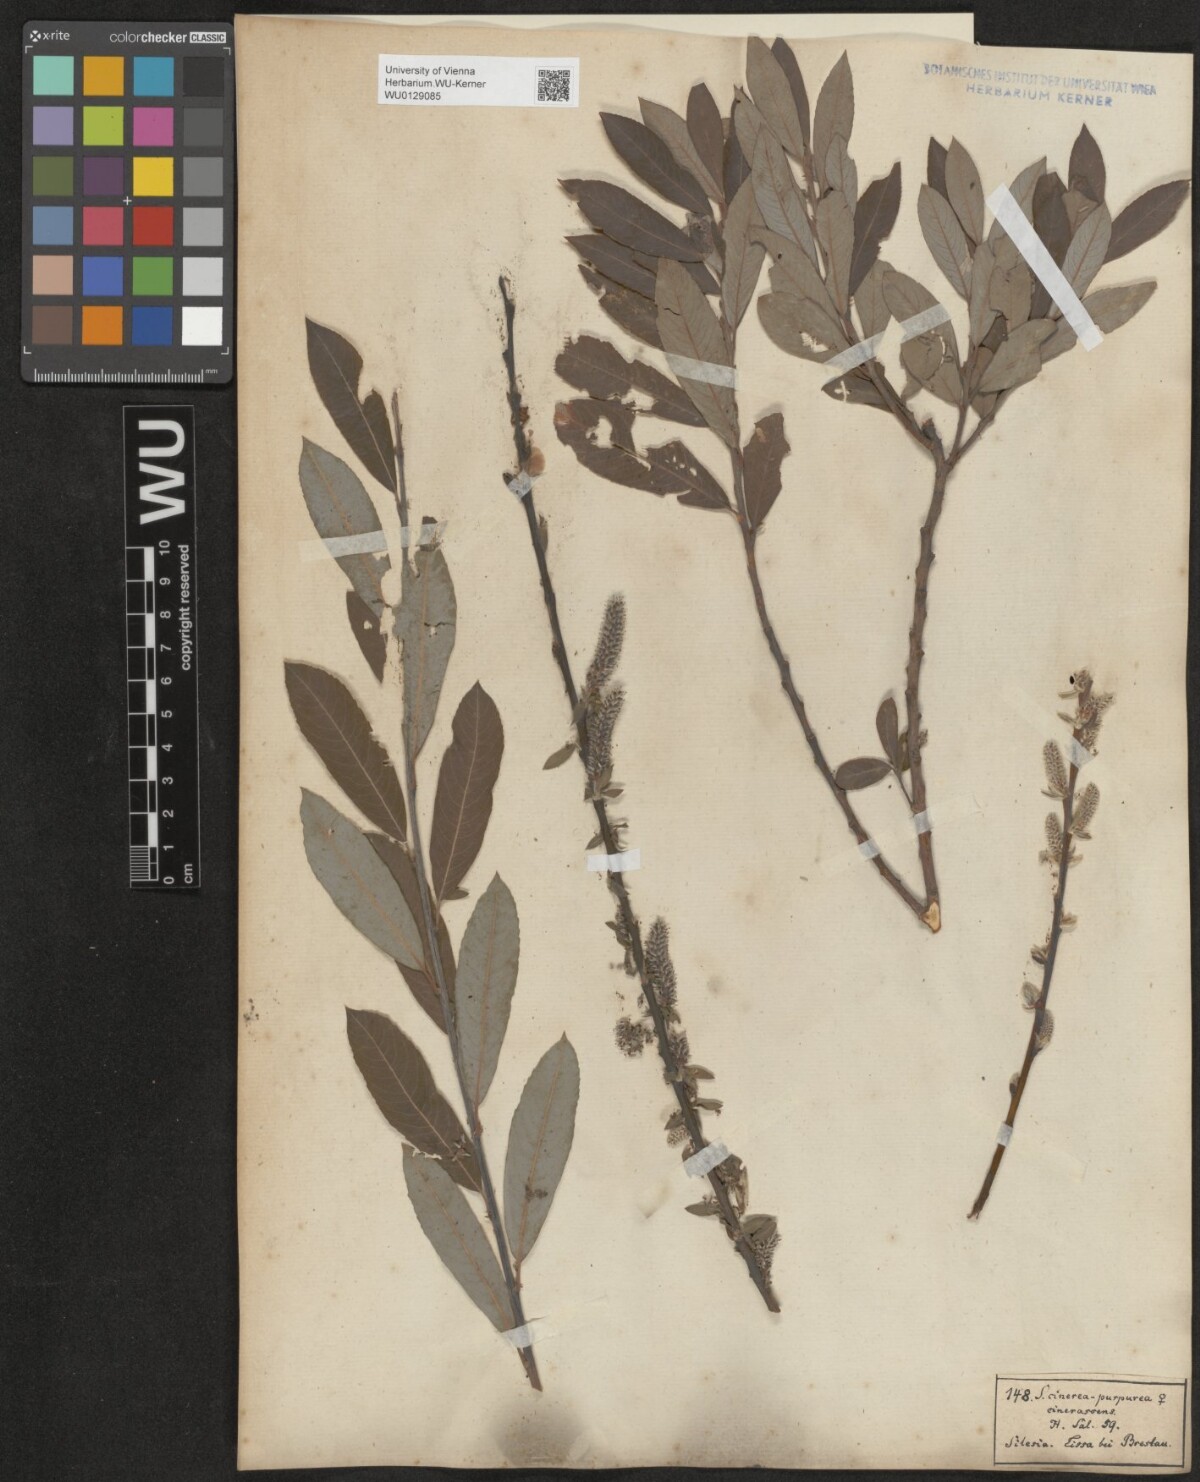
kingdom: Plantae
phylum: Tracheophyta
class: Magnoliopsida
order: Malpighiales
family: Salicaceae
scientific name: Salicaceae
